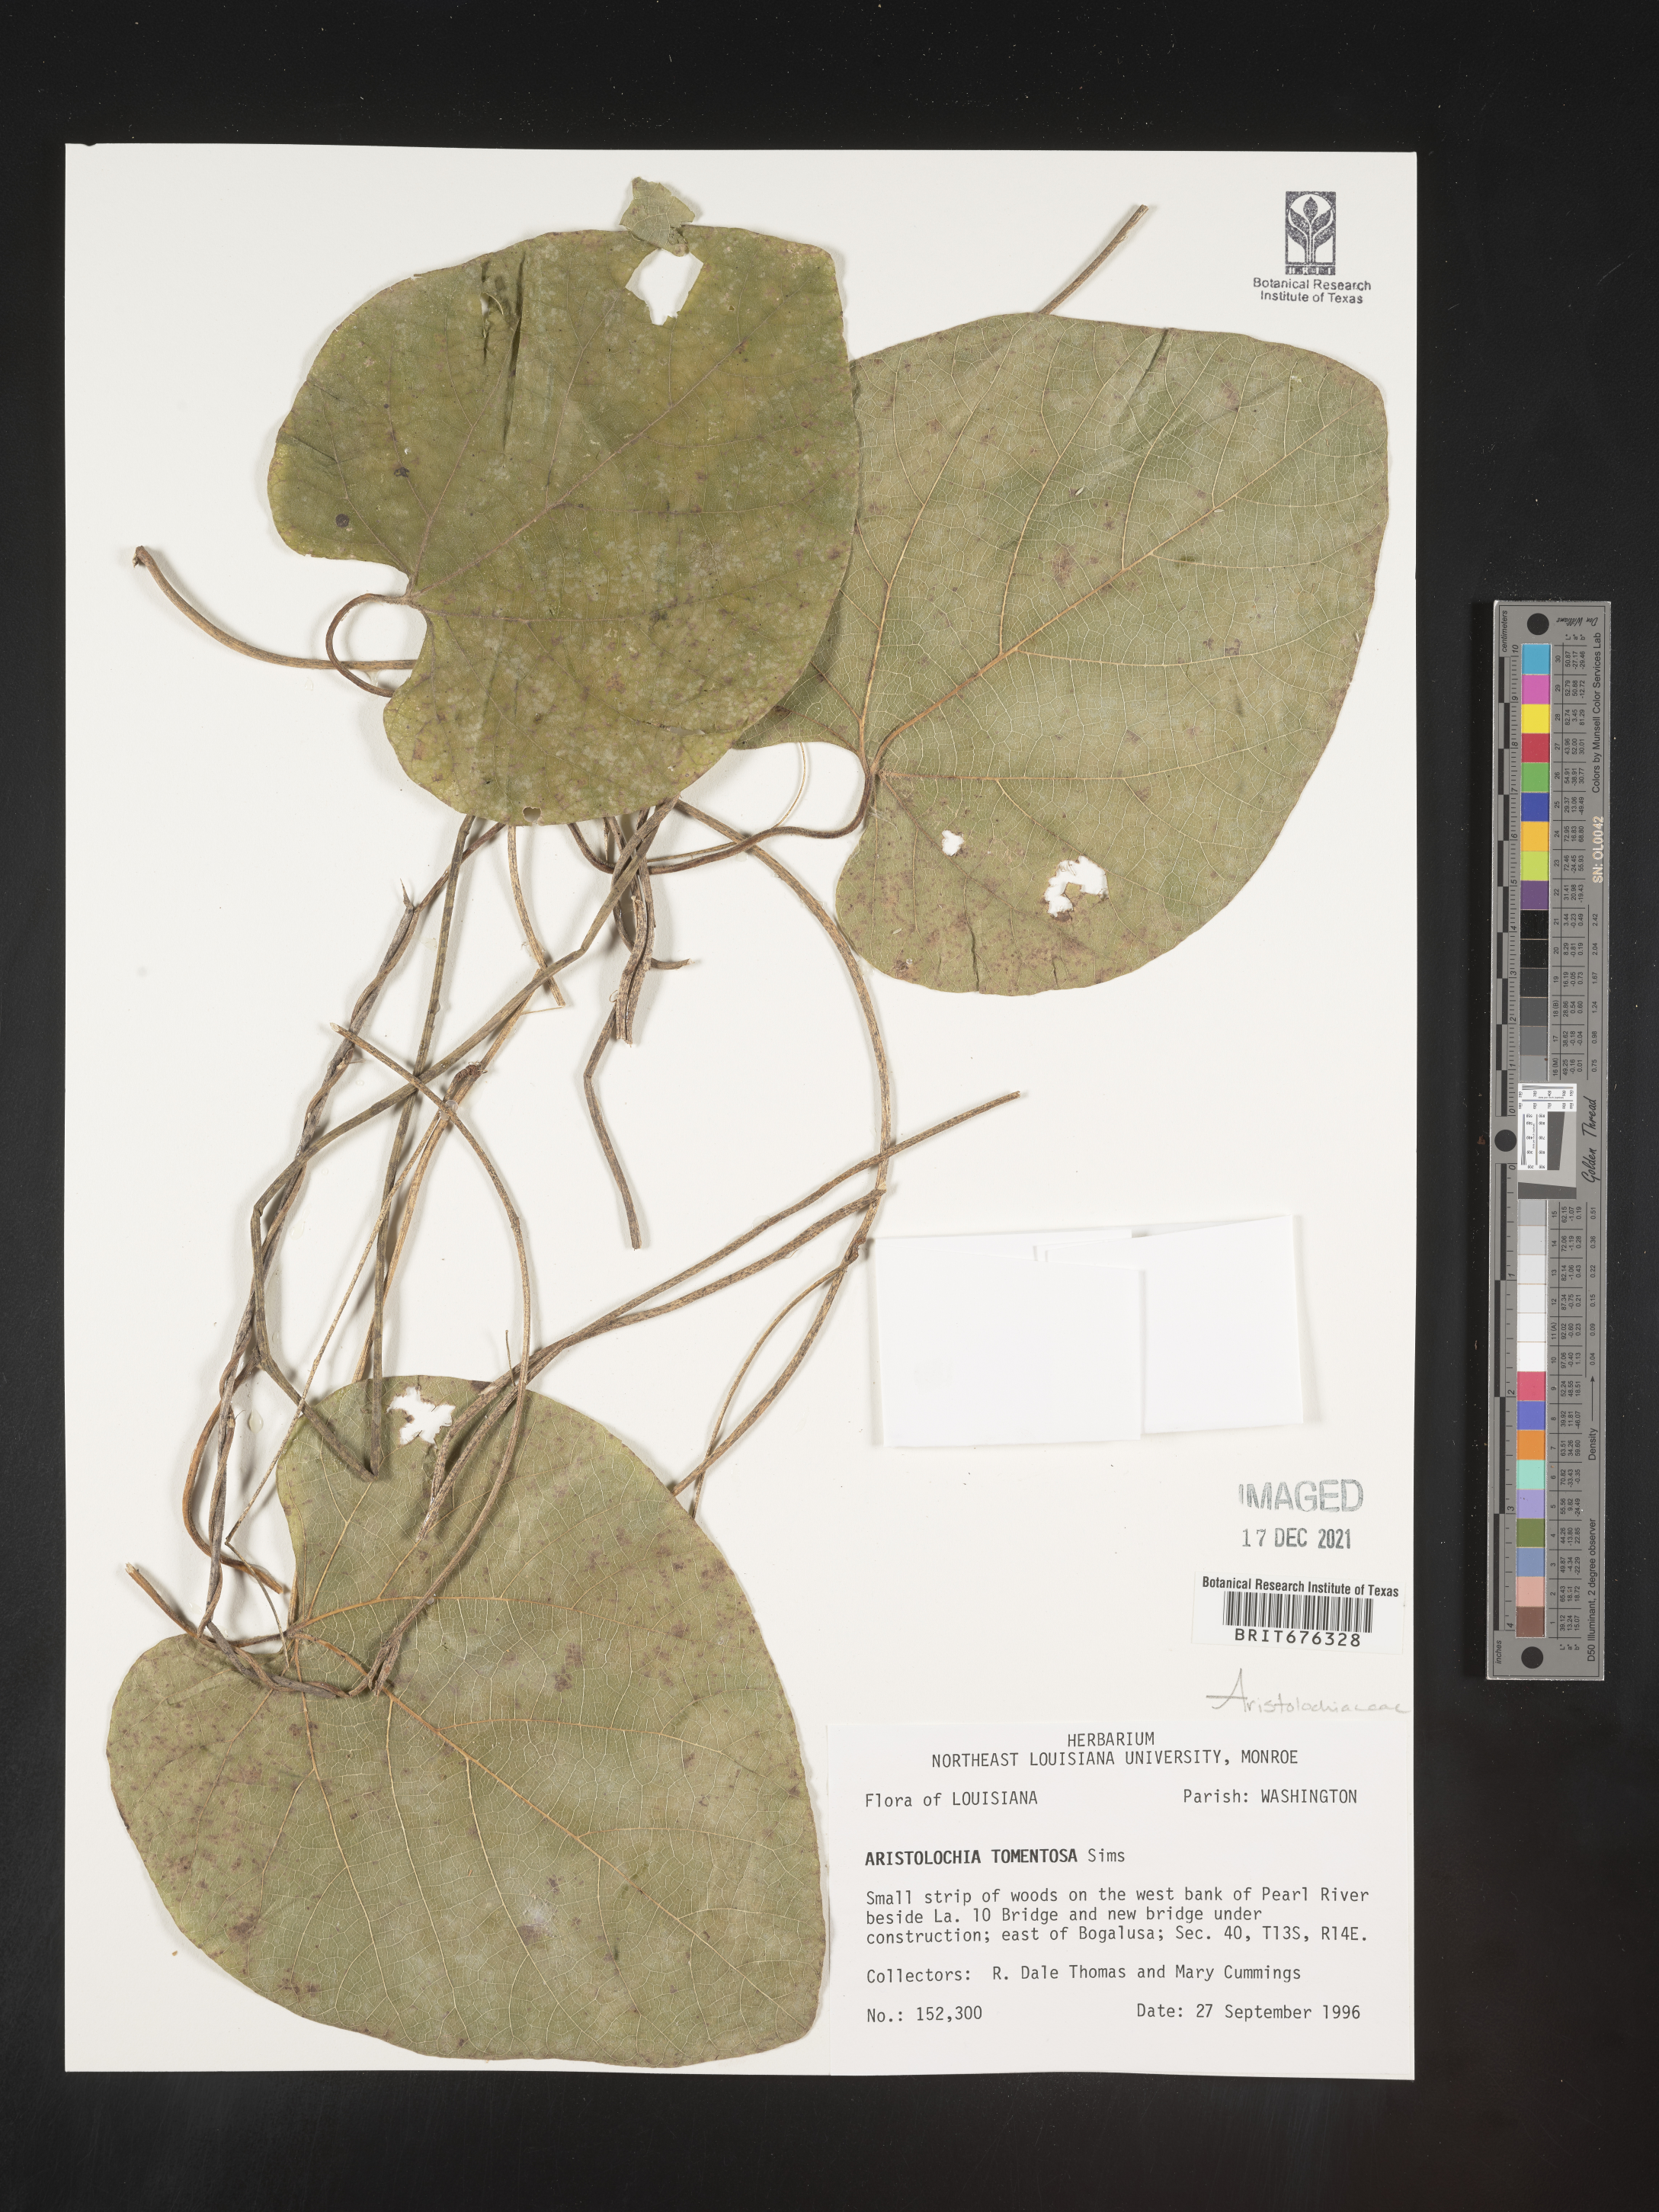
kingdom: Plantae
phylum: Tracheophyta
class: Magnoliopsida
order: Piperales
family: Aristolochiaceae
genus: Isotrema
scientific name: Isotrema tomentosum
